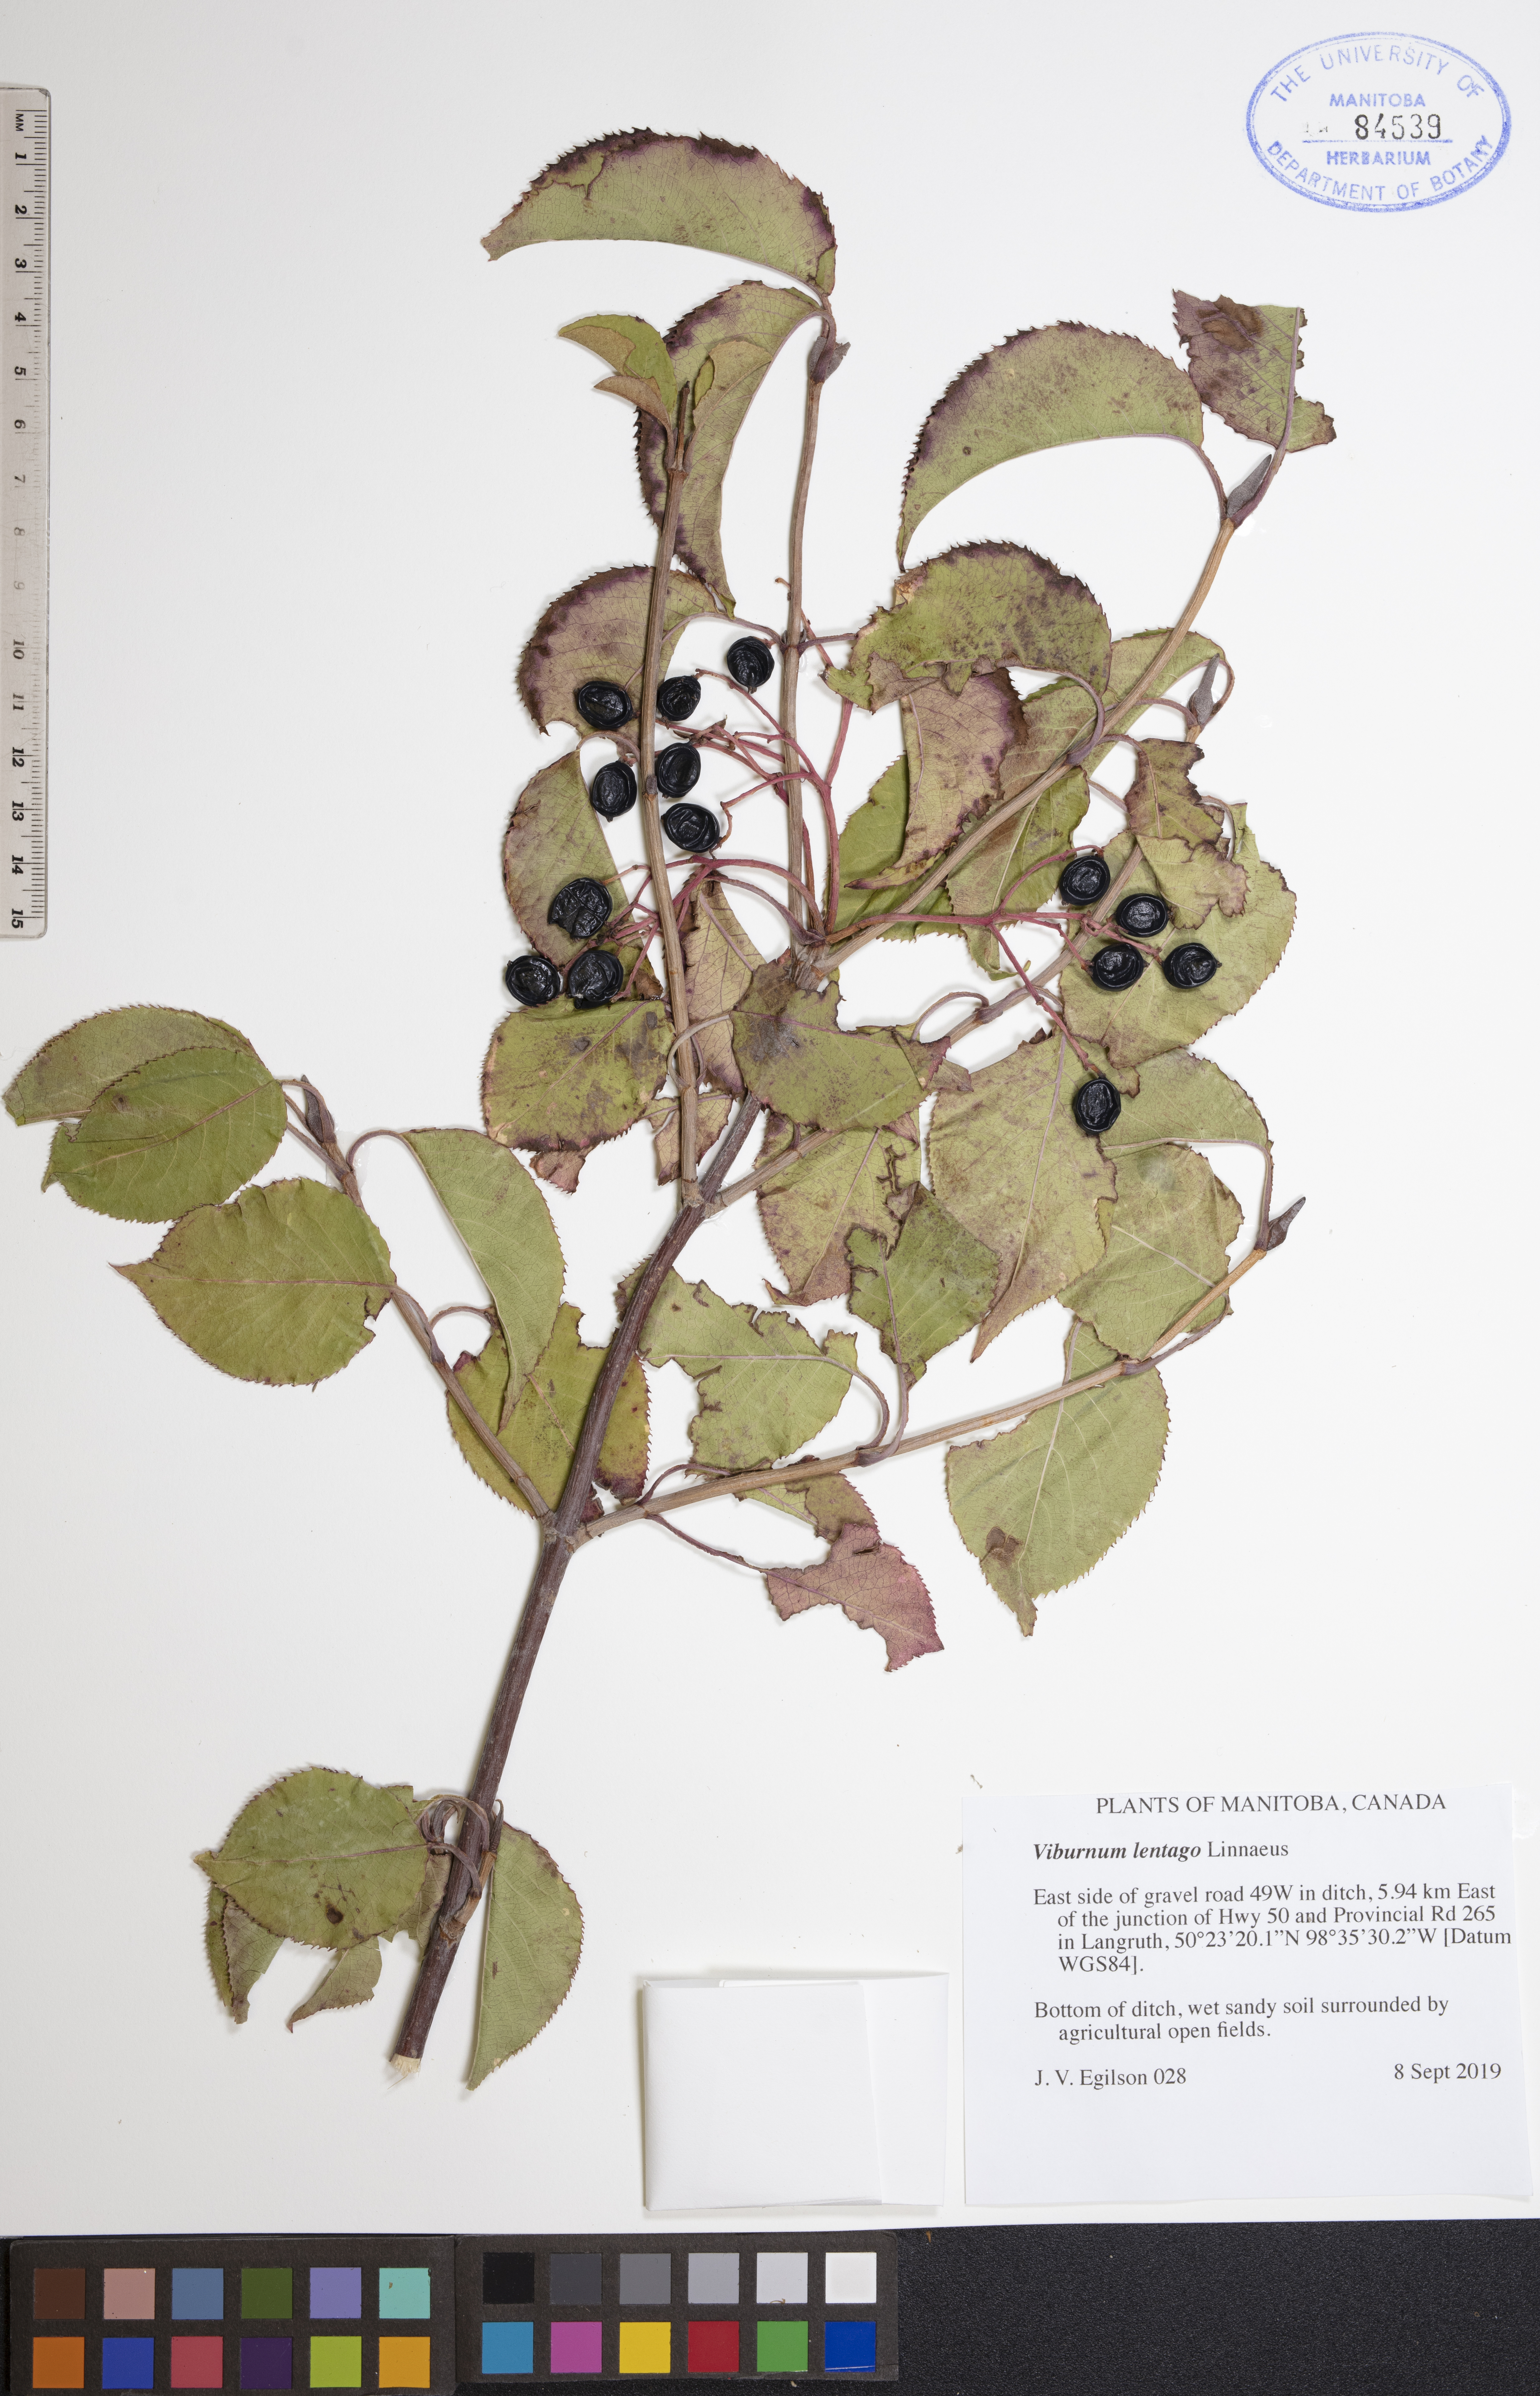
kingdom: Plantae
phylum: Tracheophyta
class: Magnoliopsida
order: Dipsacales
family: Viburnaceae
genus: Viburnum
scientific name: Viburnum lentago
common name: Black haw
